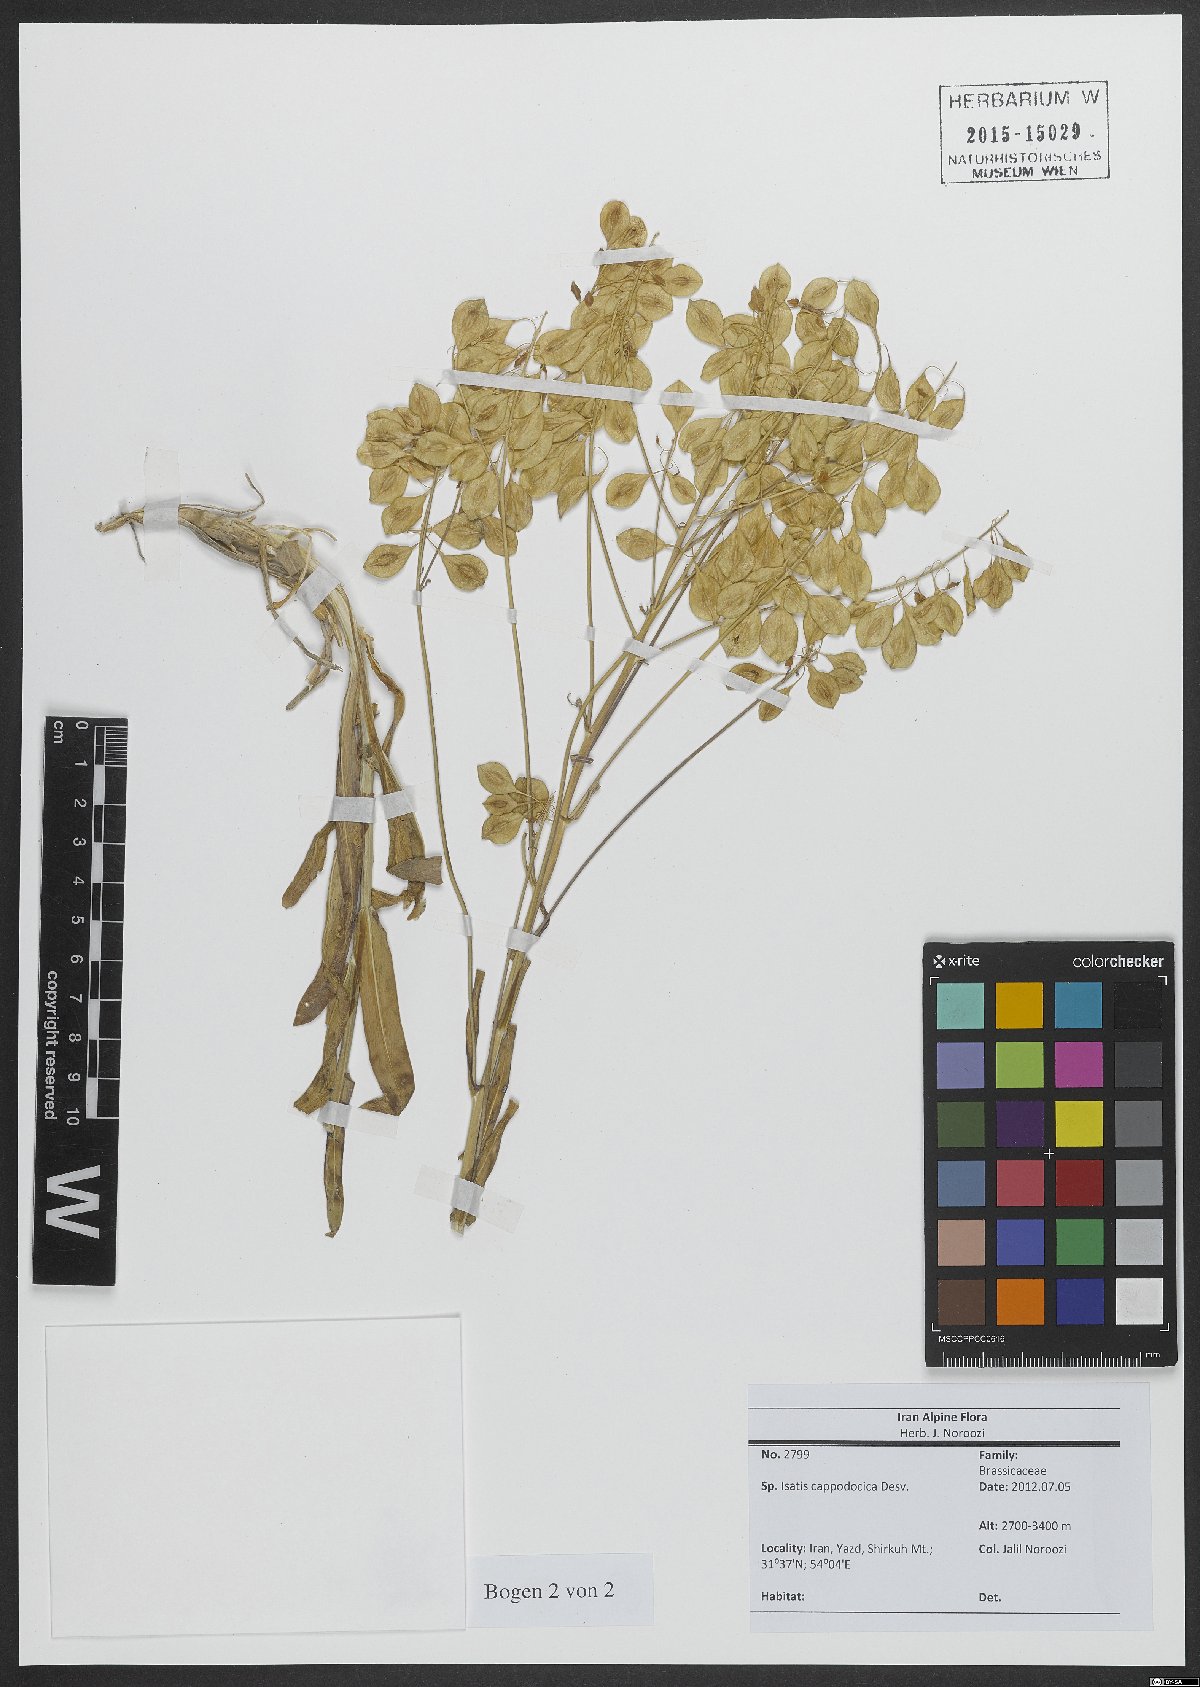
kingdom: Plantae
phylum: Tracheophyta
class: Magnoliopsida
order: Brassicales
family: Brassicaceae
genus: Isatis
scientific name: Isatis cappadocica
